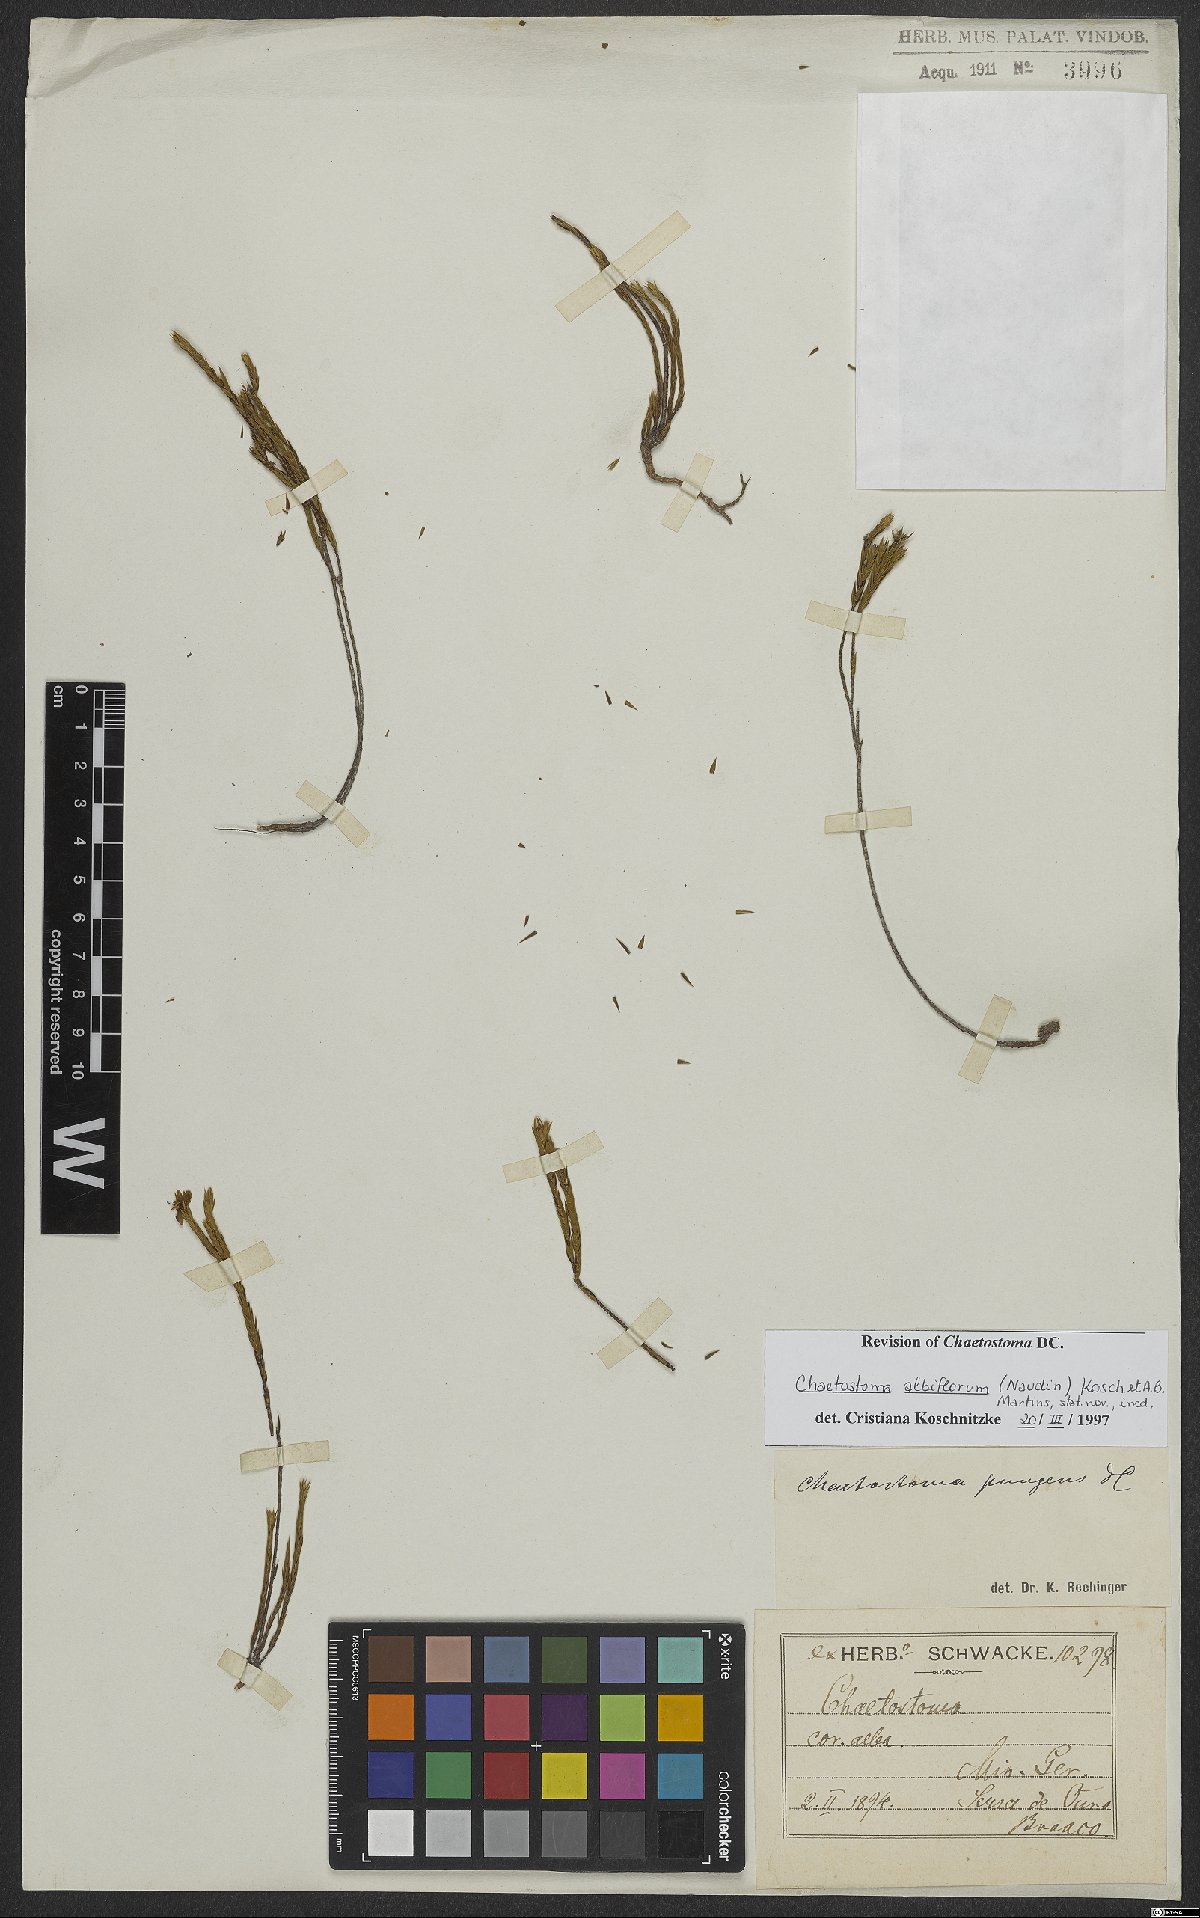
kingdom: Plantae
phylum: Tracheophyta
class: Magnoliopsida
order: Myrtales
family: Melastomataceae
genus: Microlicia
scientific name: Microlicia albiflora
